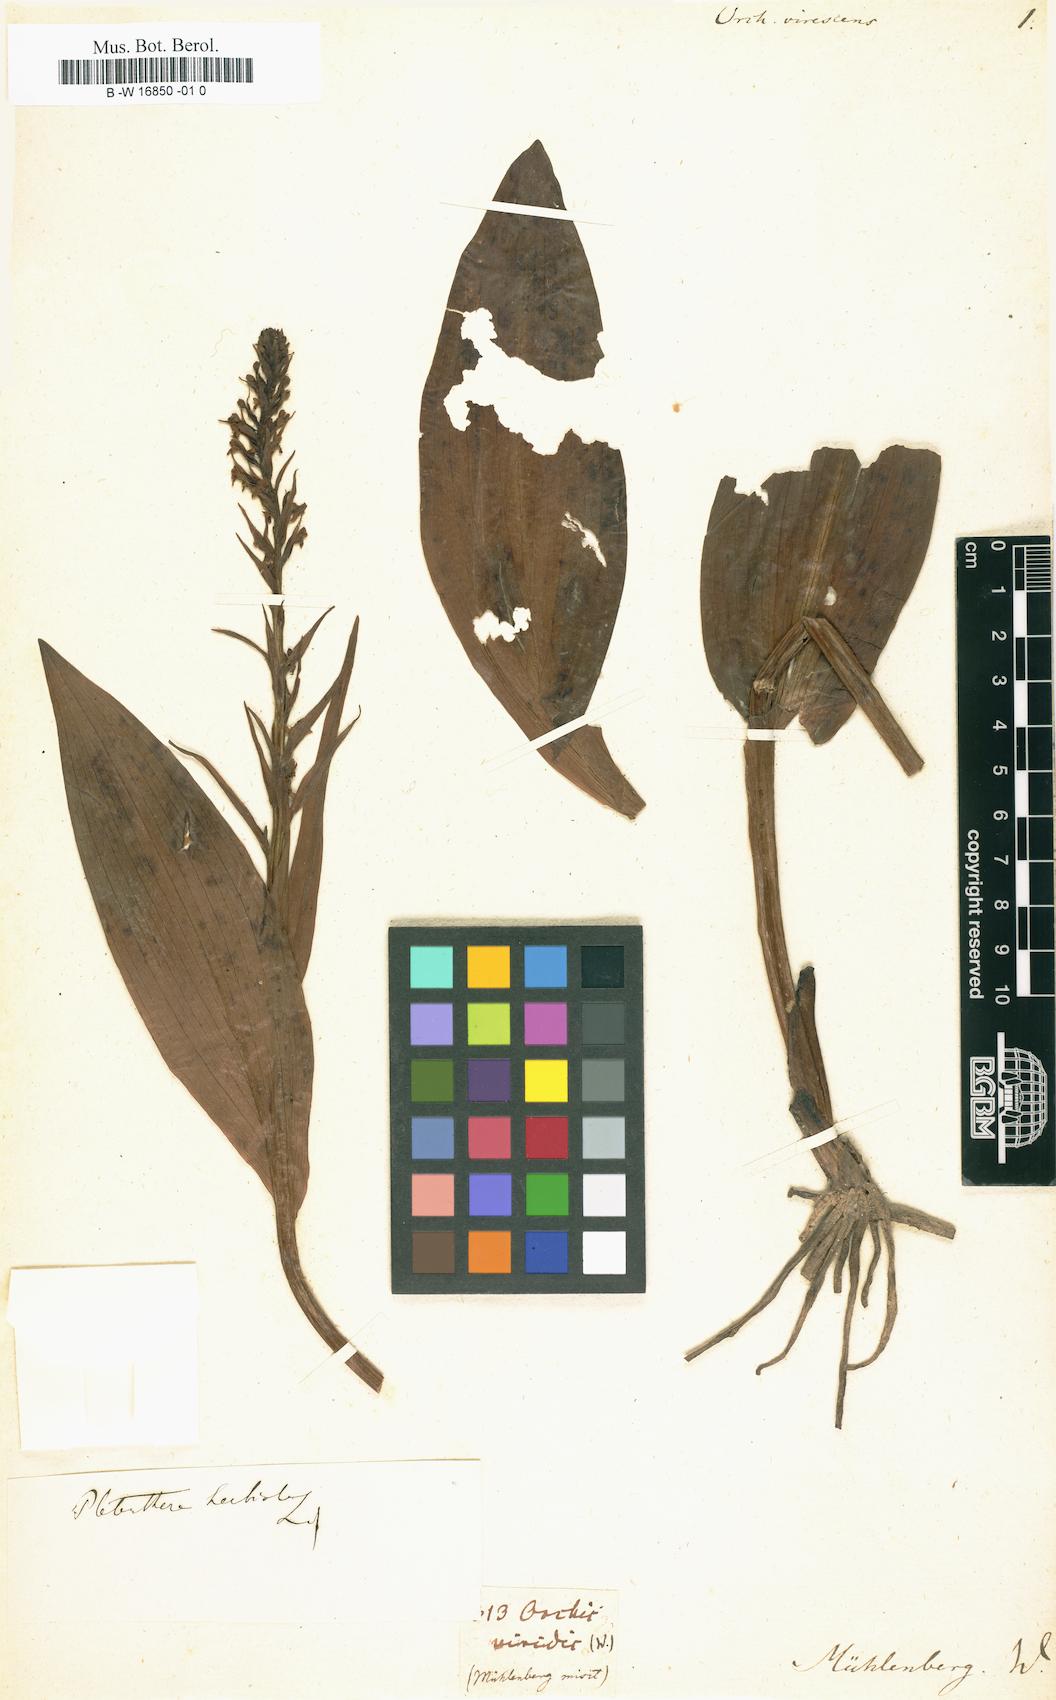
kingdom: Plantae
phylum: Tracheophyta
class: Liliopsida
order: Asparagales
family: Orchidaceae
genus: Platanthera
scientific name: Platanthera chlorantha
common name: Greater butterfly-orchid
